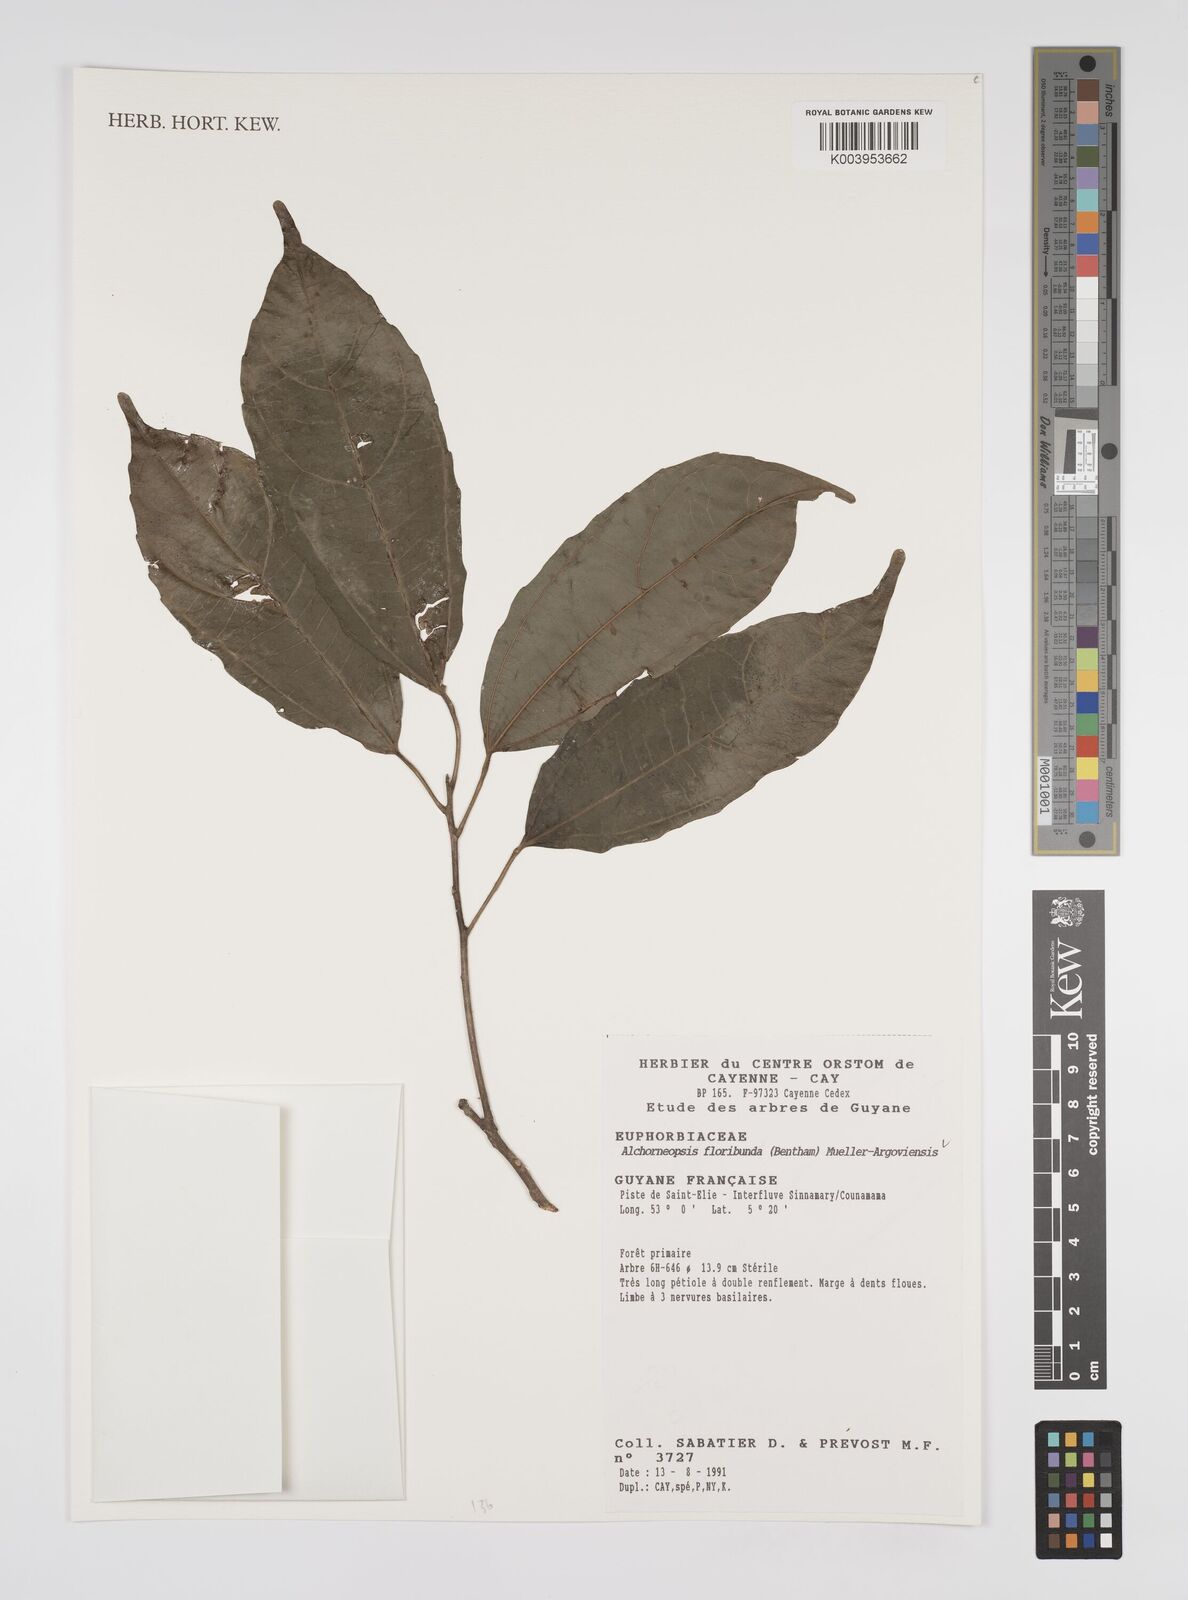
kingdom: Plantae
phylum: Tracheophyta
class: Magnoliopsida
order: Malpighiales
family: Euphorbiaceae
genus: Alchorneopsis
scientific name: Alchorneopsis floribunda
